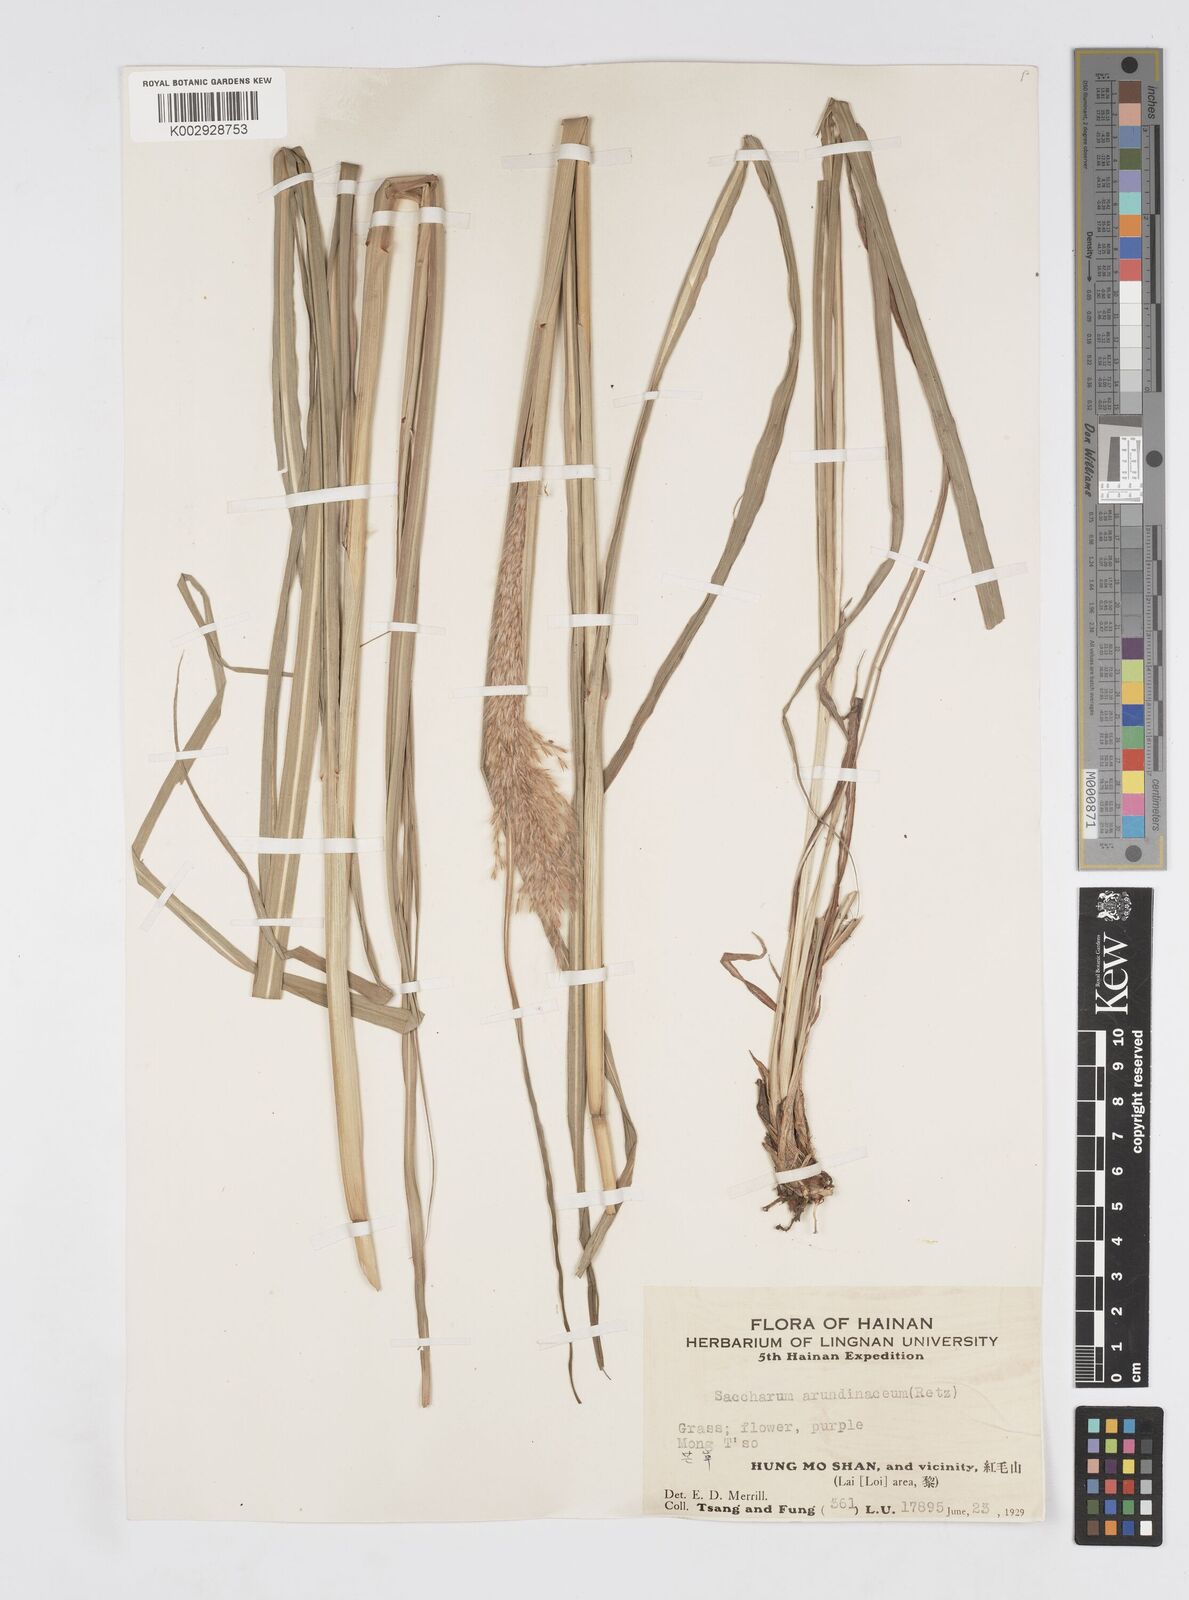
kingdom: Plantae
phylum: Tracheophyta
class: Liliopsida
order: Poales
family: Poaceae
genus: Tripidium
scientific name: Tripidium arundinaceum
